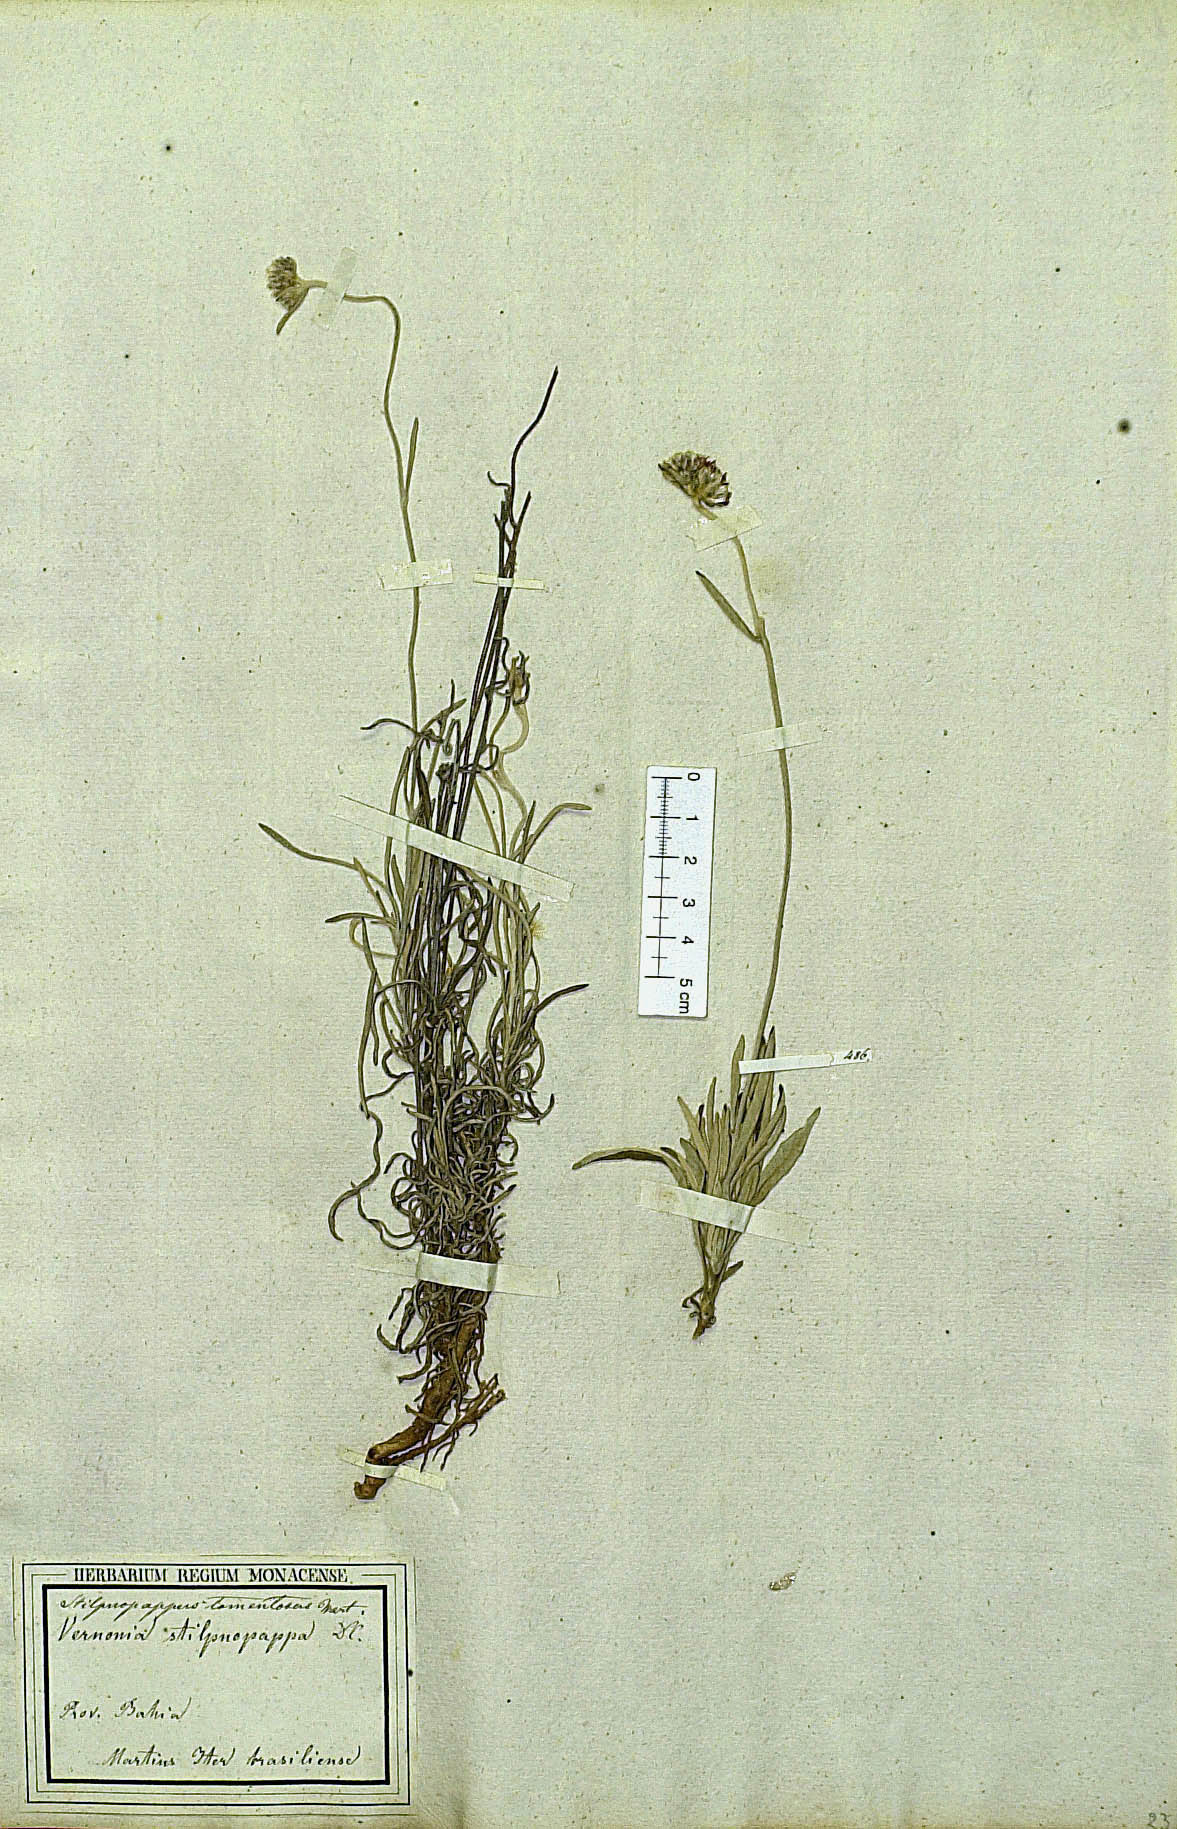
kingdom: Plantae
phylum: Tracheophyta
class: Magnoliopsida
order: Asterales
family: Asteraceae
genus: Stilpnopappus
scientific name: Stilpnopappus tomentosus
